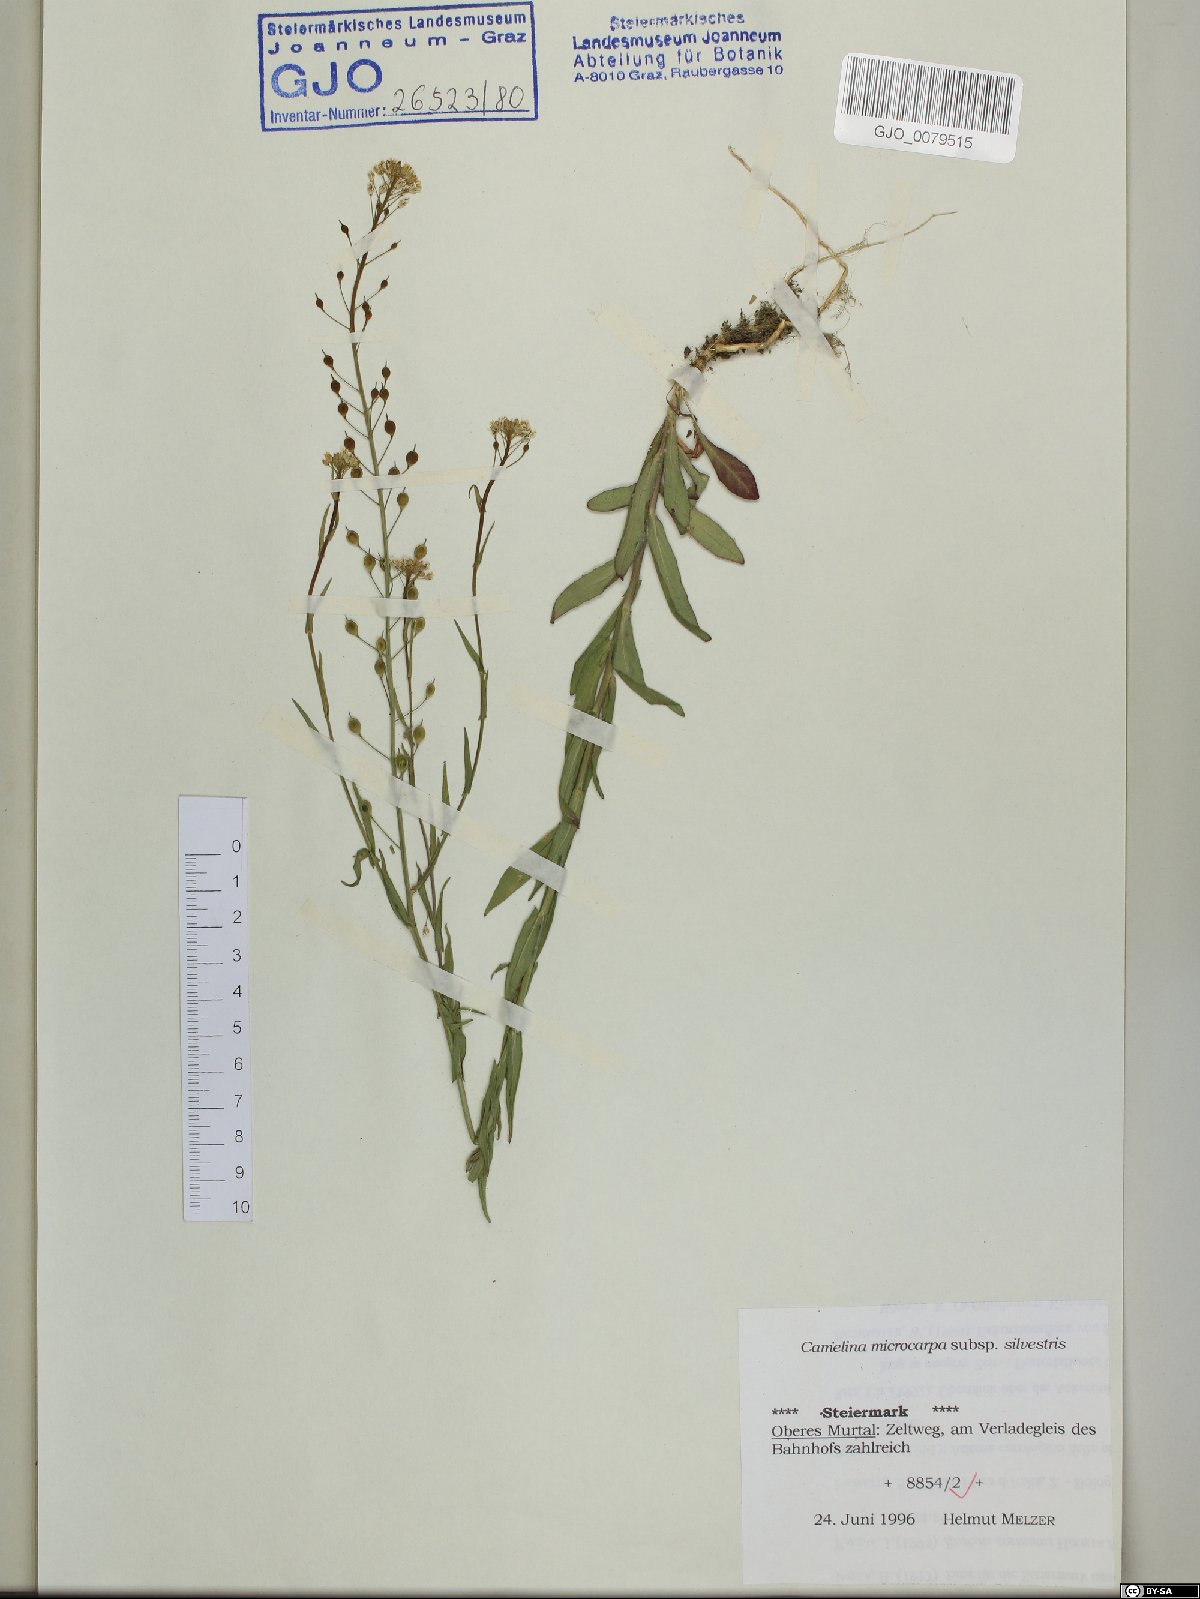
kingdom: Plantae
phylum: Tracheophyta
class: Magnoliopsida
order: Brassicales
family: Brassicaceae
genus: Camelina
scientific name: Camelina microcarpa
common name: Lesser gold-of-pleasure
